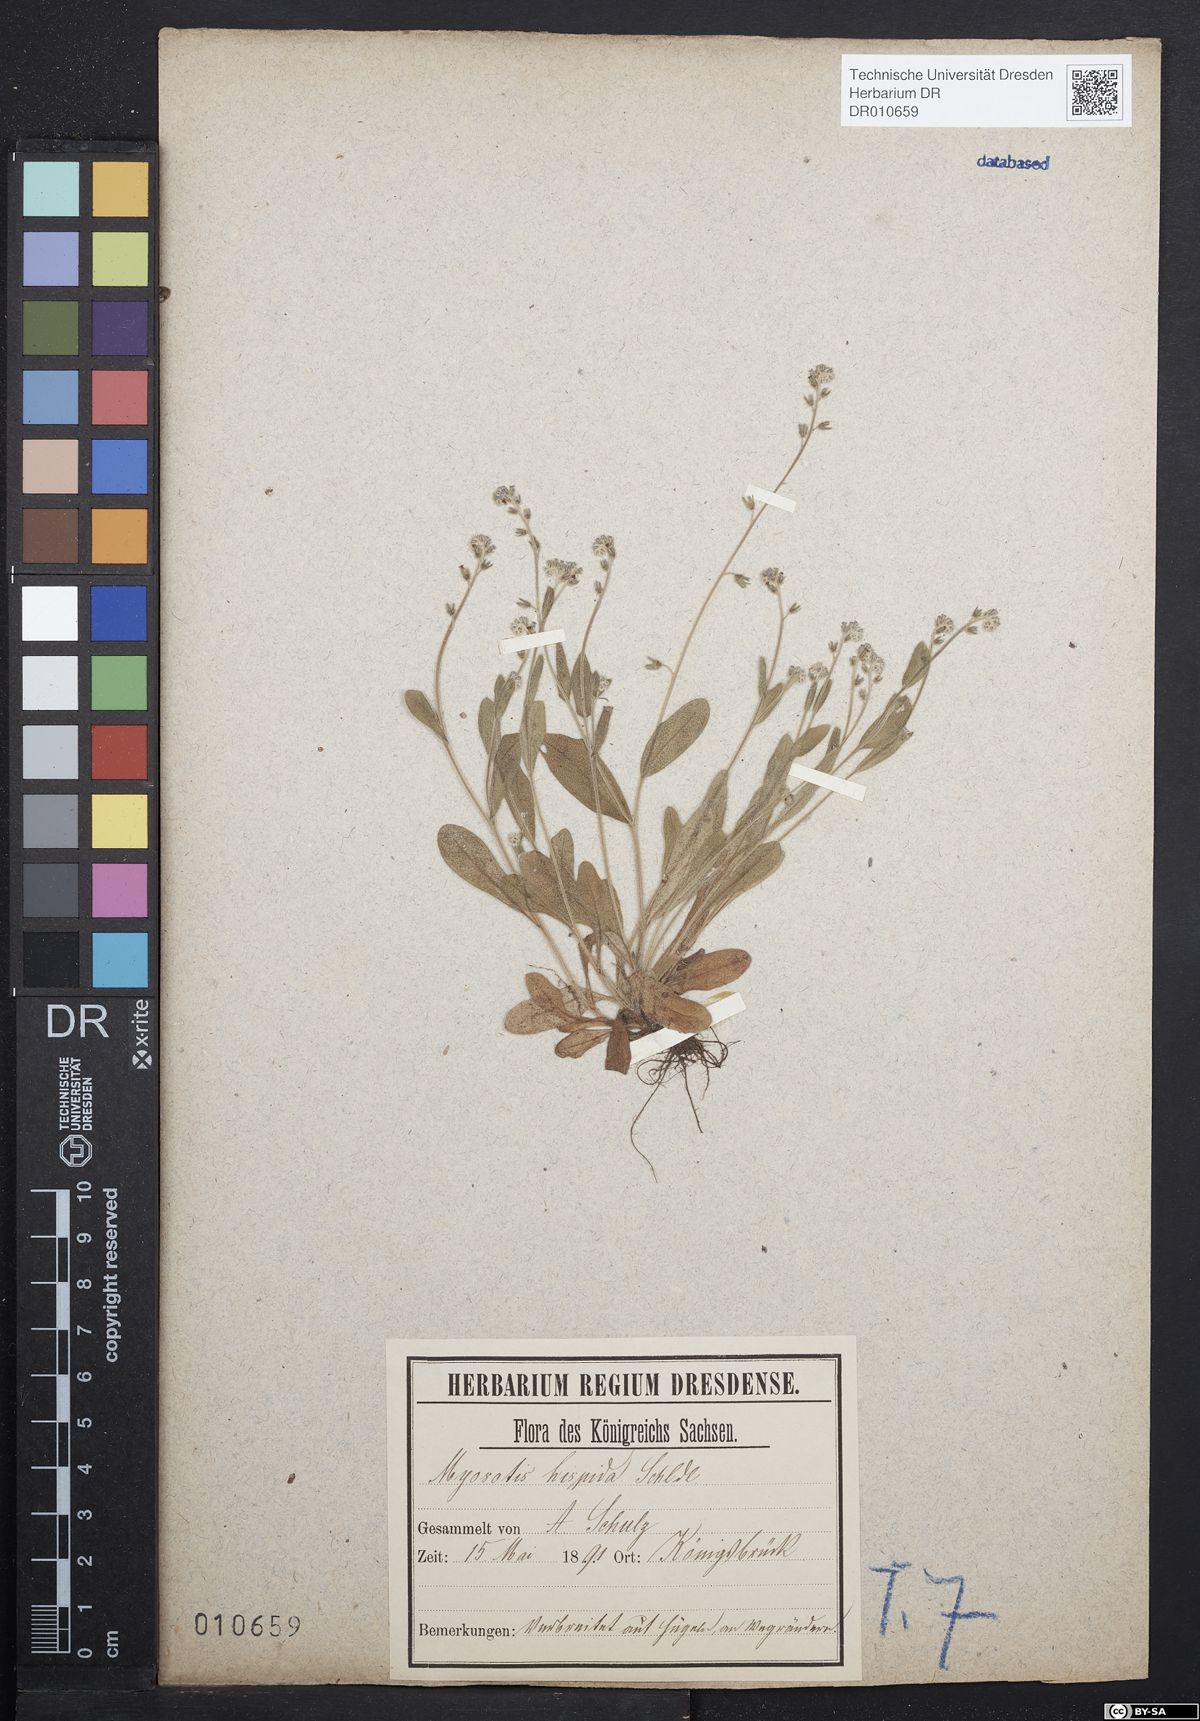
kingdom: Plantae
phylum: Tracheophyta
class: Magnoliopsida
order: Boraginales
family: Boraginaceae
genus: Myosotis
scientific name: Myosotis ramosissima
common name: Early forget-me-not
